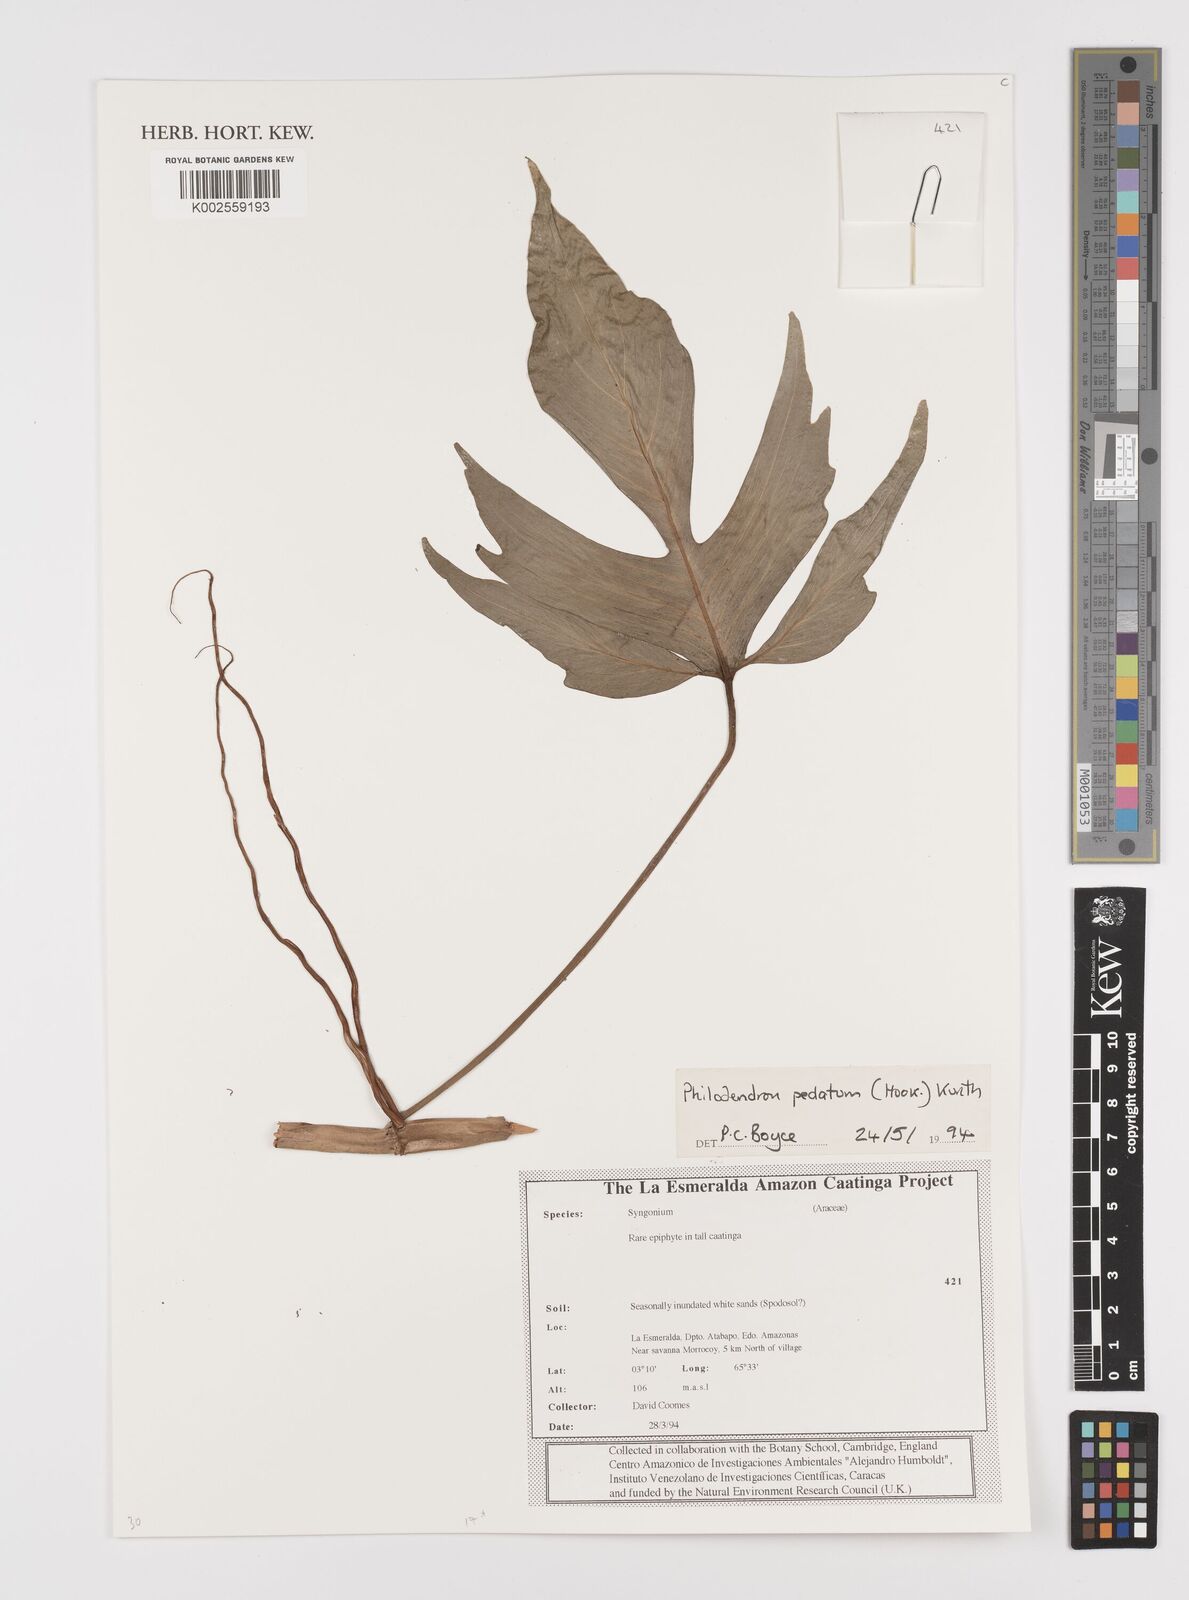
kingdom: Plantae
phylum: Tracheophyta
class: Liliopsida
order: Alismatales
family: Araceae
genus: Philodendron
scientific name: Philodendron pedatum
